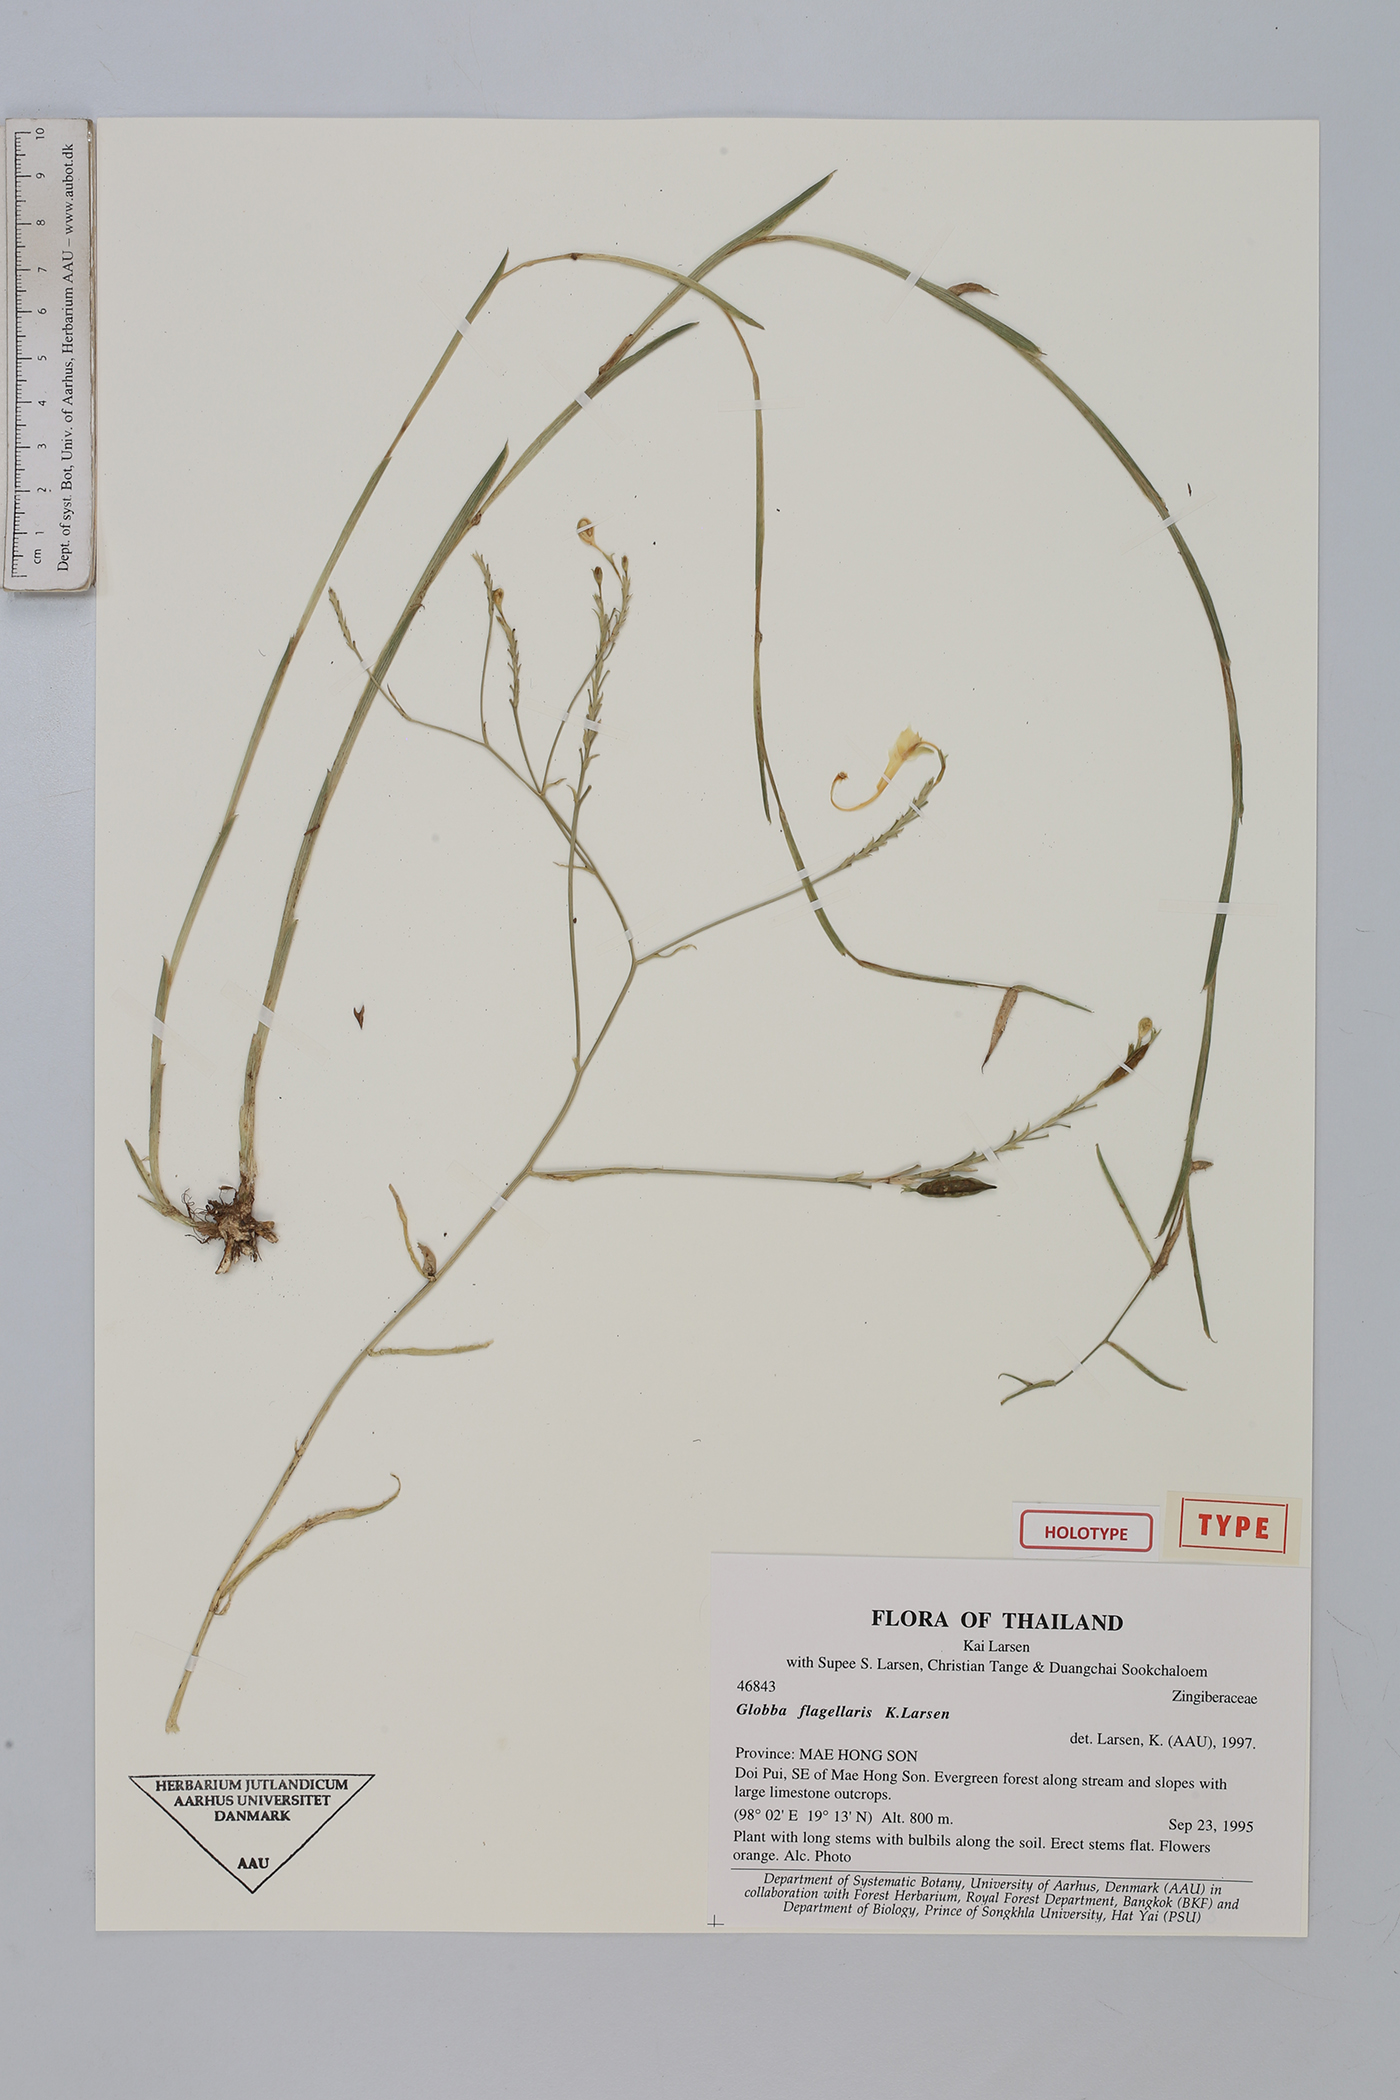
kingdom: Plantae
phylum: Tracheophyta
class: Liliopsida
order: Zingiberales
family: Zingiberaceae
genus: Globba
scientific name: Globba flagellaris
